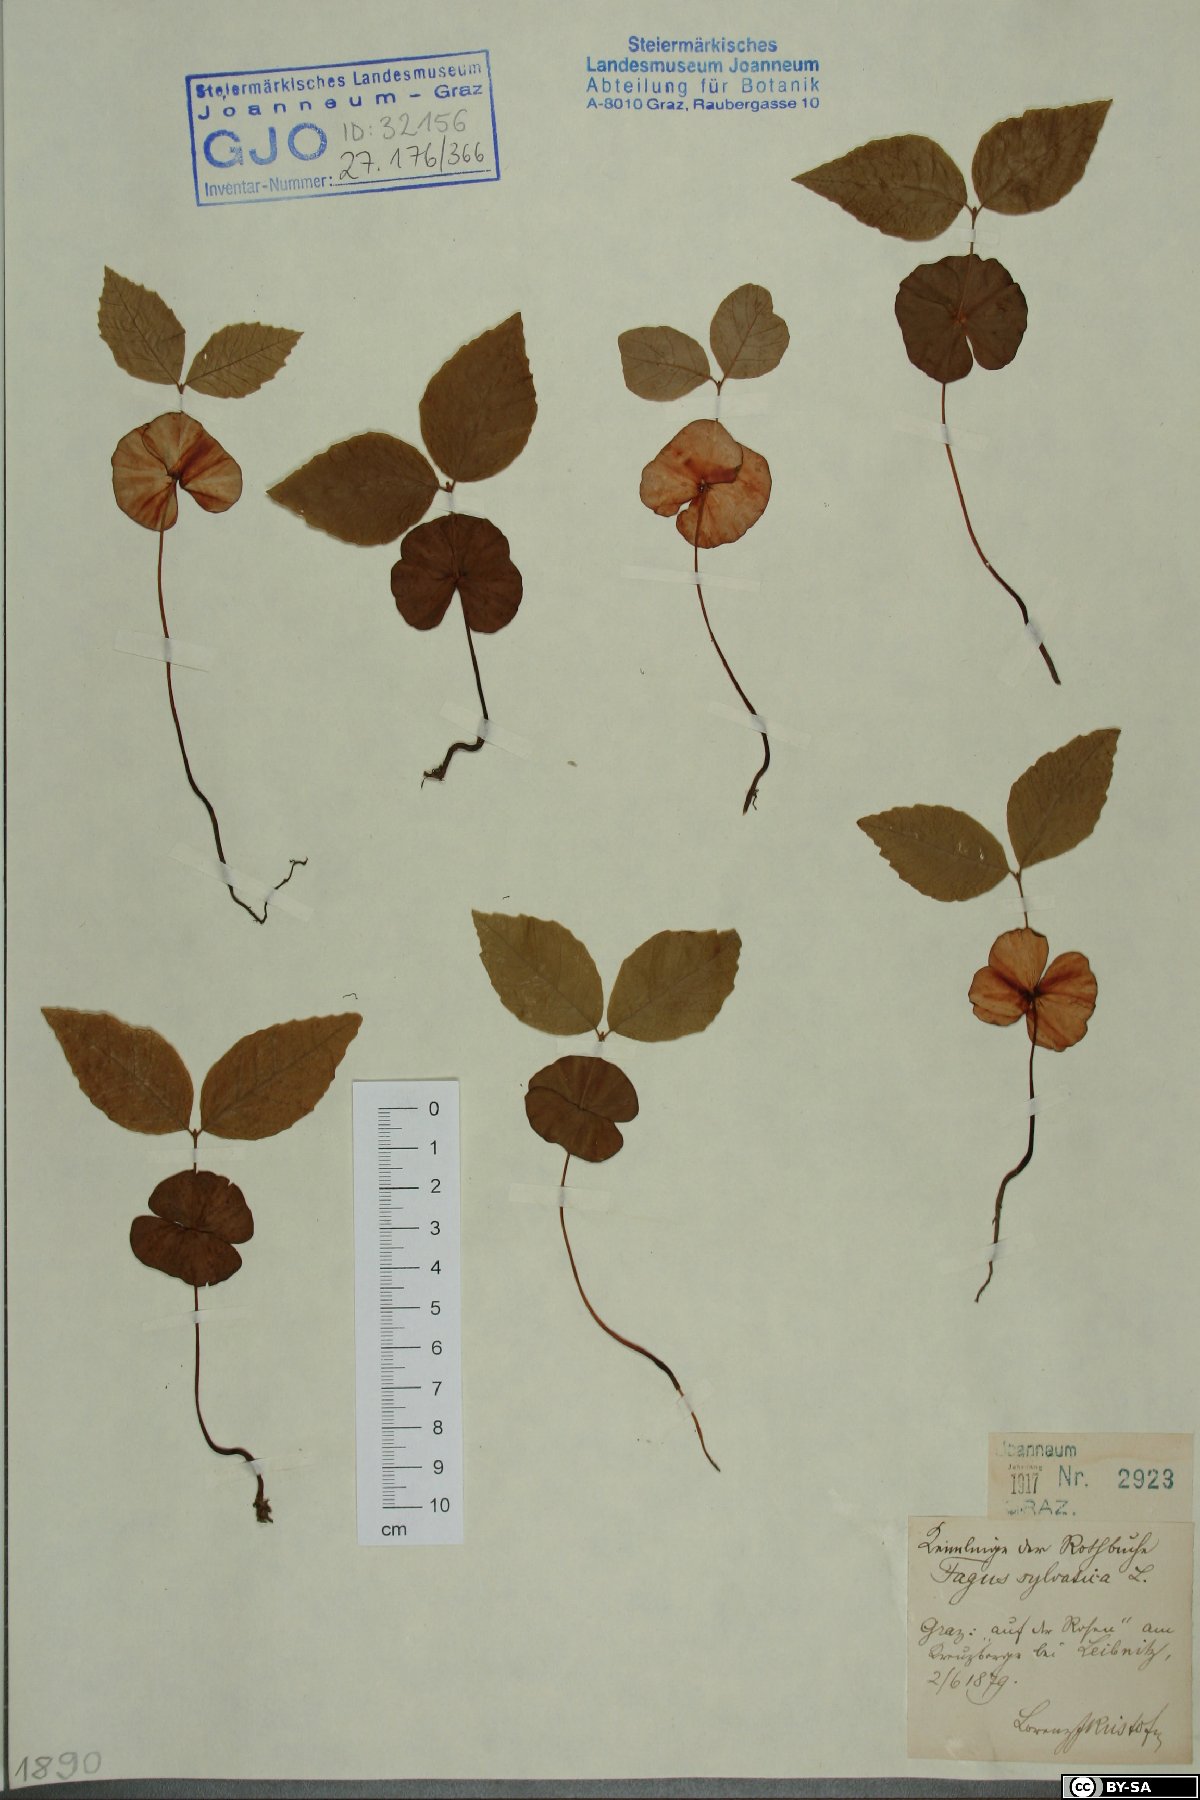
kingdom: Plantae
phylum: Tracheophyta
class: Magnoliopsida
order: Fagales
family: Fagaceae
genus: Fagus
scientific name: Fagus sylvatica
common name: Beech
